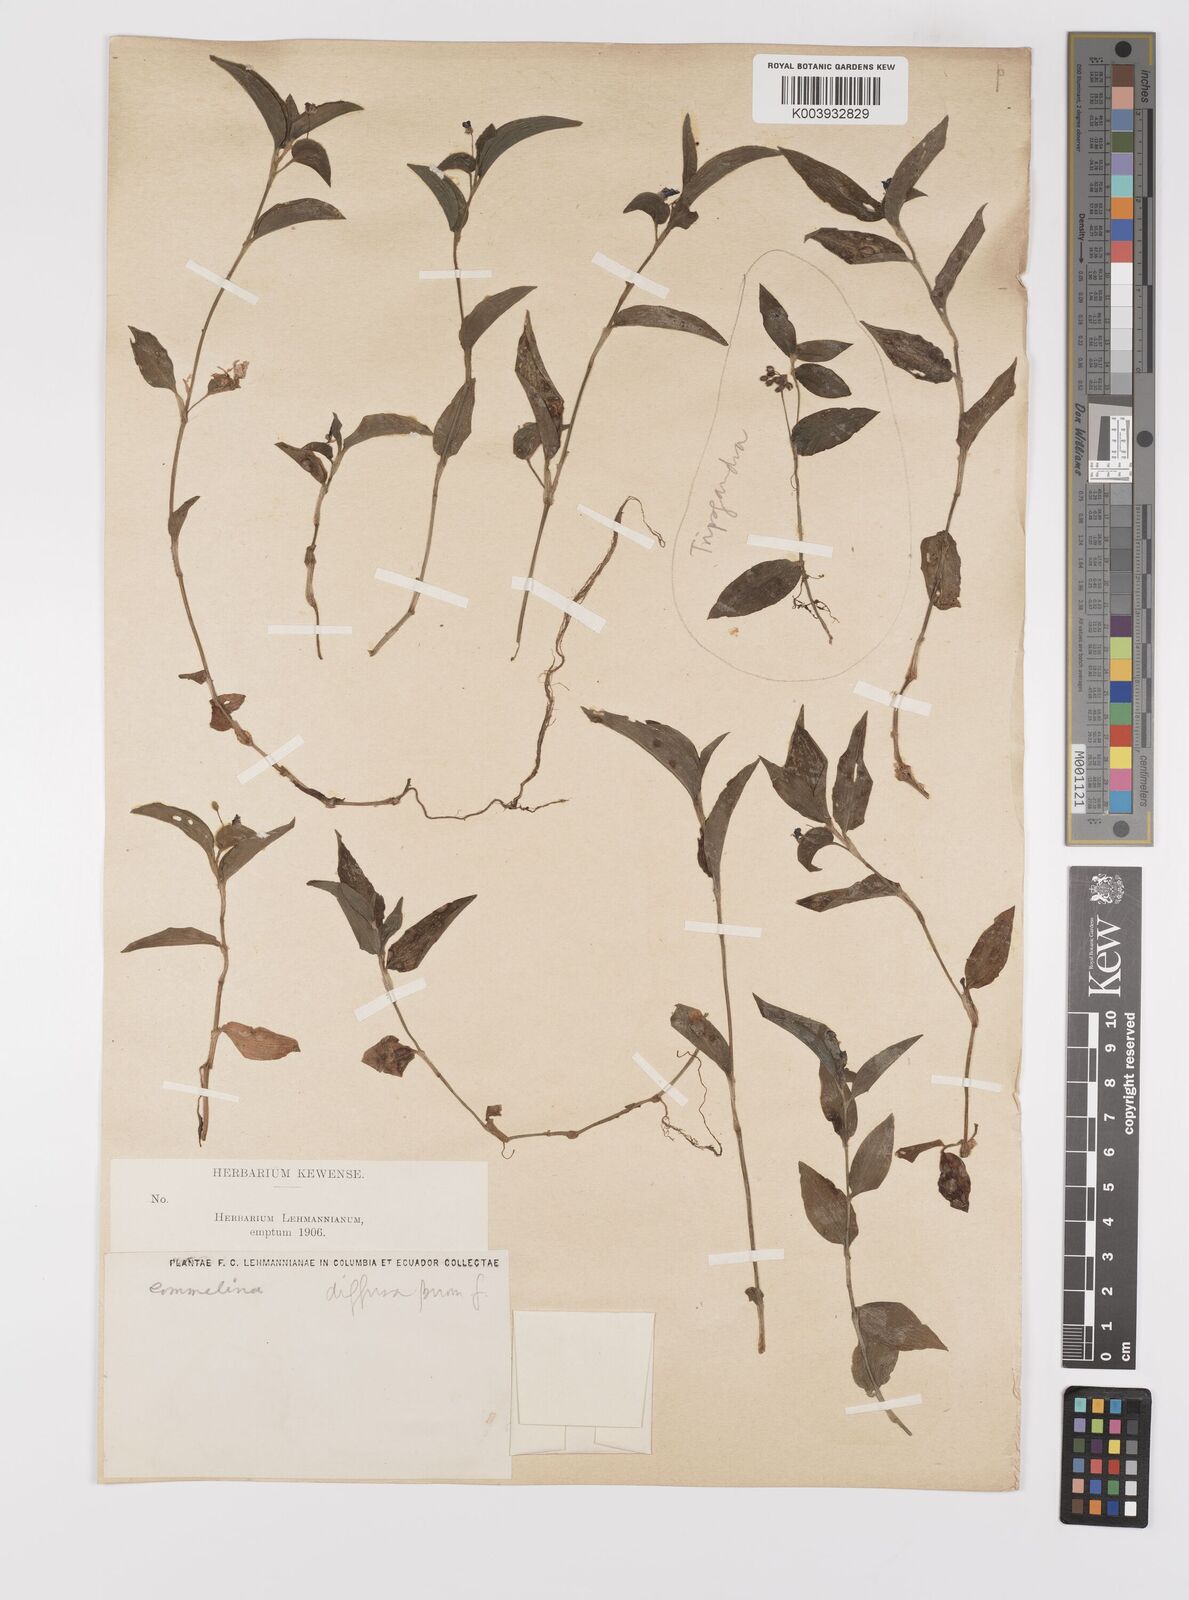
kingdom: Plantae
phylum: Tracheophyta
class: Liliopsida
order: Commelinales
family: Commelinaceae
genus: Commelina
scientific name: Commelina
